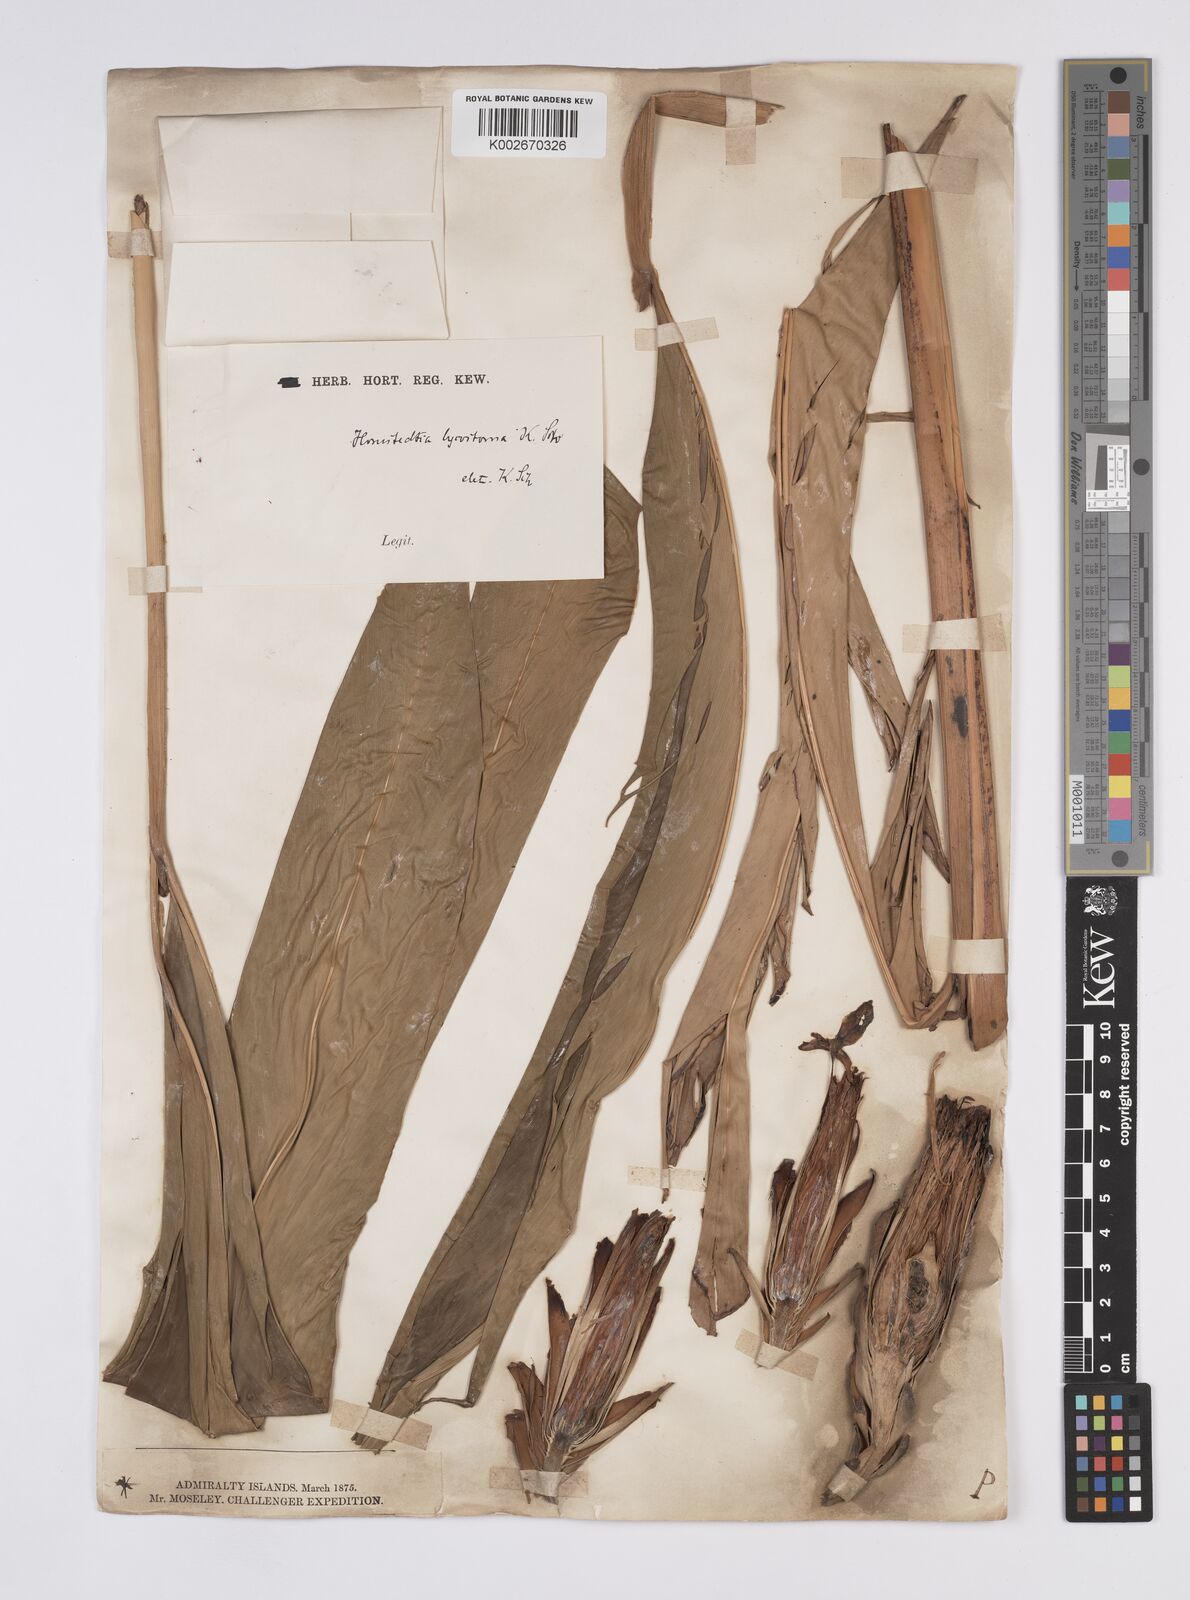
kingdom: Plantae
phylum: Tracheophyta
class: Liliopsida
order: Zingiberales
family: Zingiberaceae
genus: Hornstedtia
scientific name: Hornstedtia scottiana
